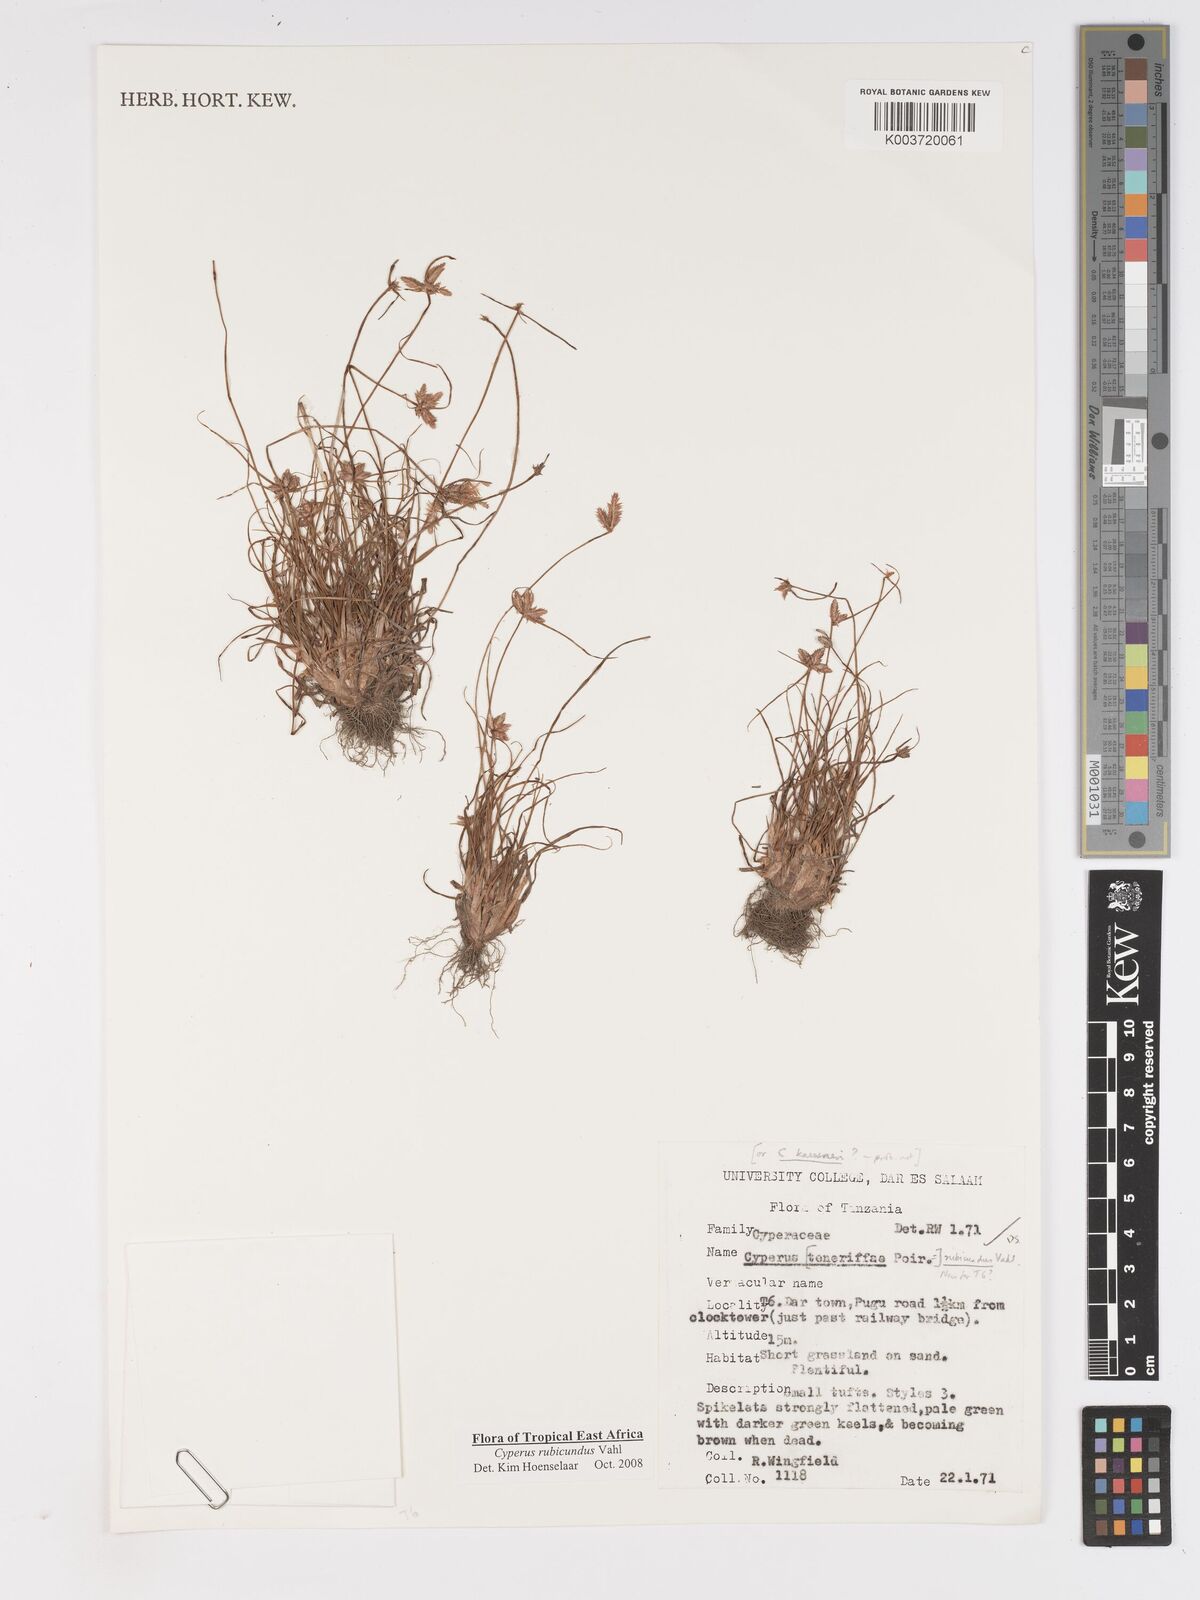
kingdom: Plantae
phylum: Tracheophyta
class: Liliopsida
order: Poales
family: Cyperaceae
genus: Cyperus
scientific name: Cyperus rubicundus
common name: Coco-grass
